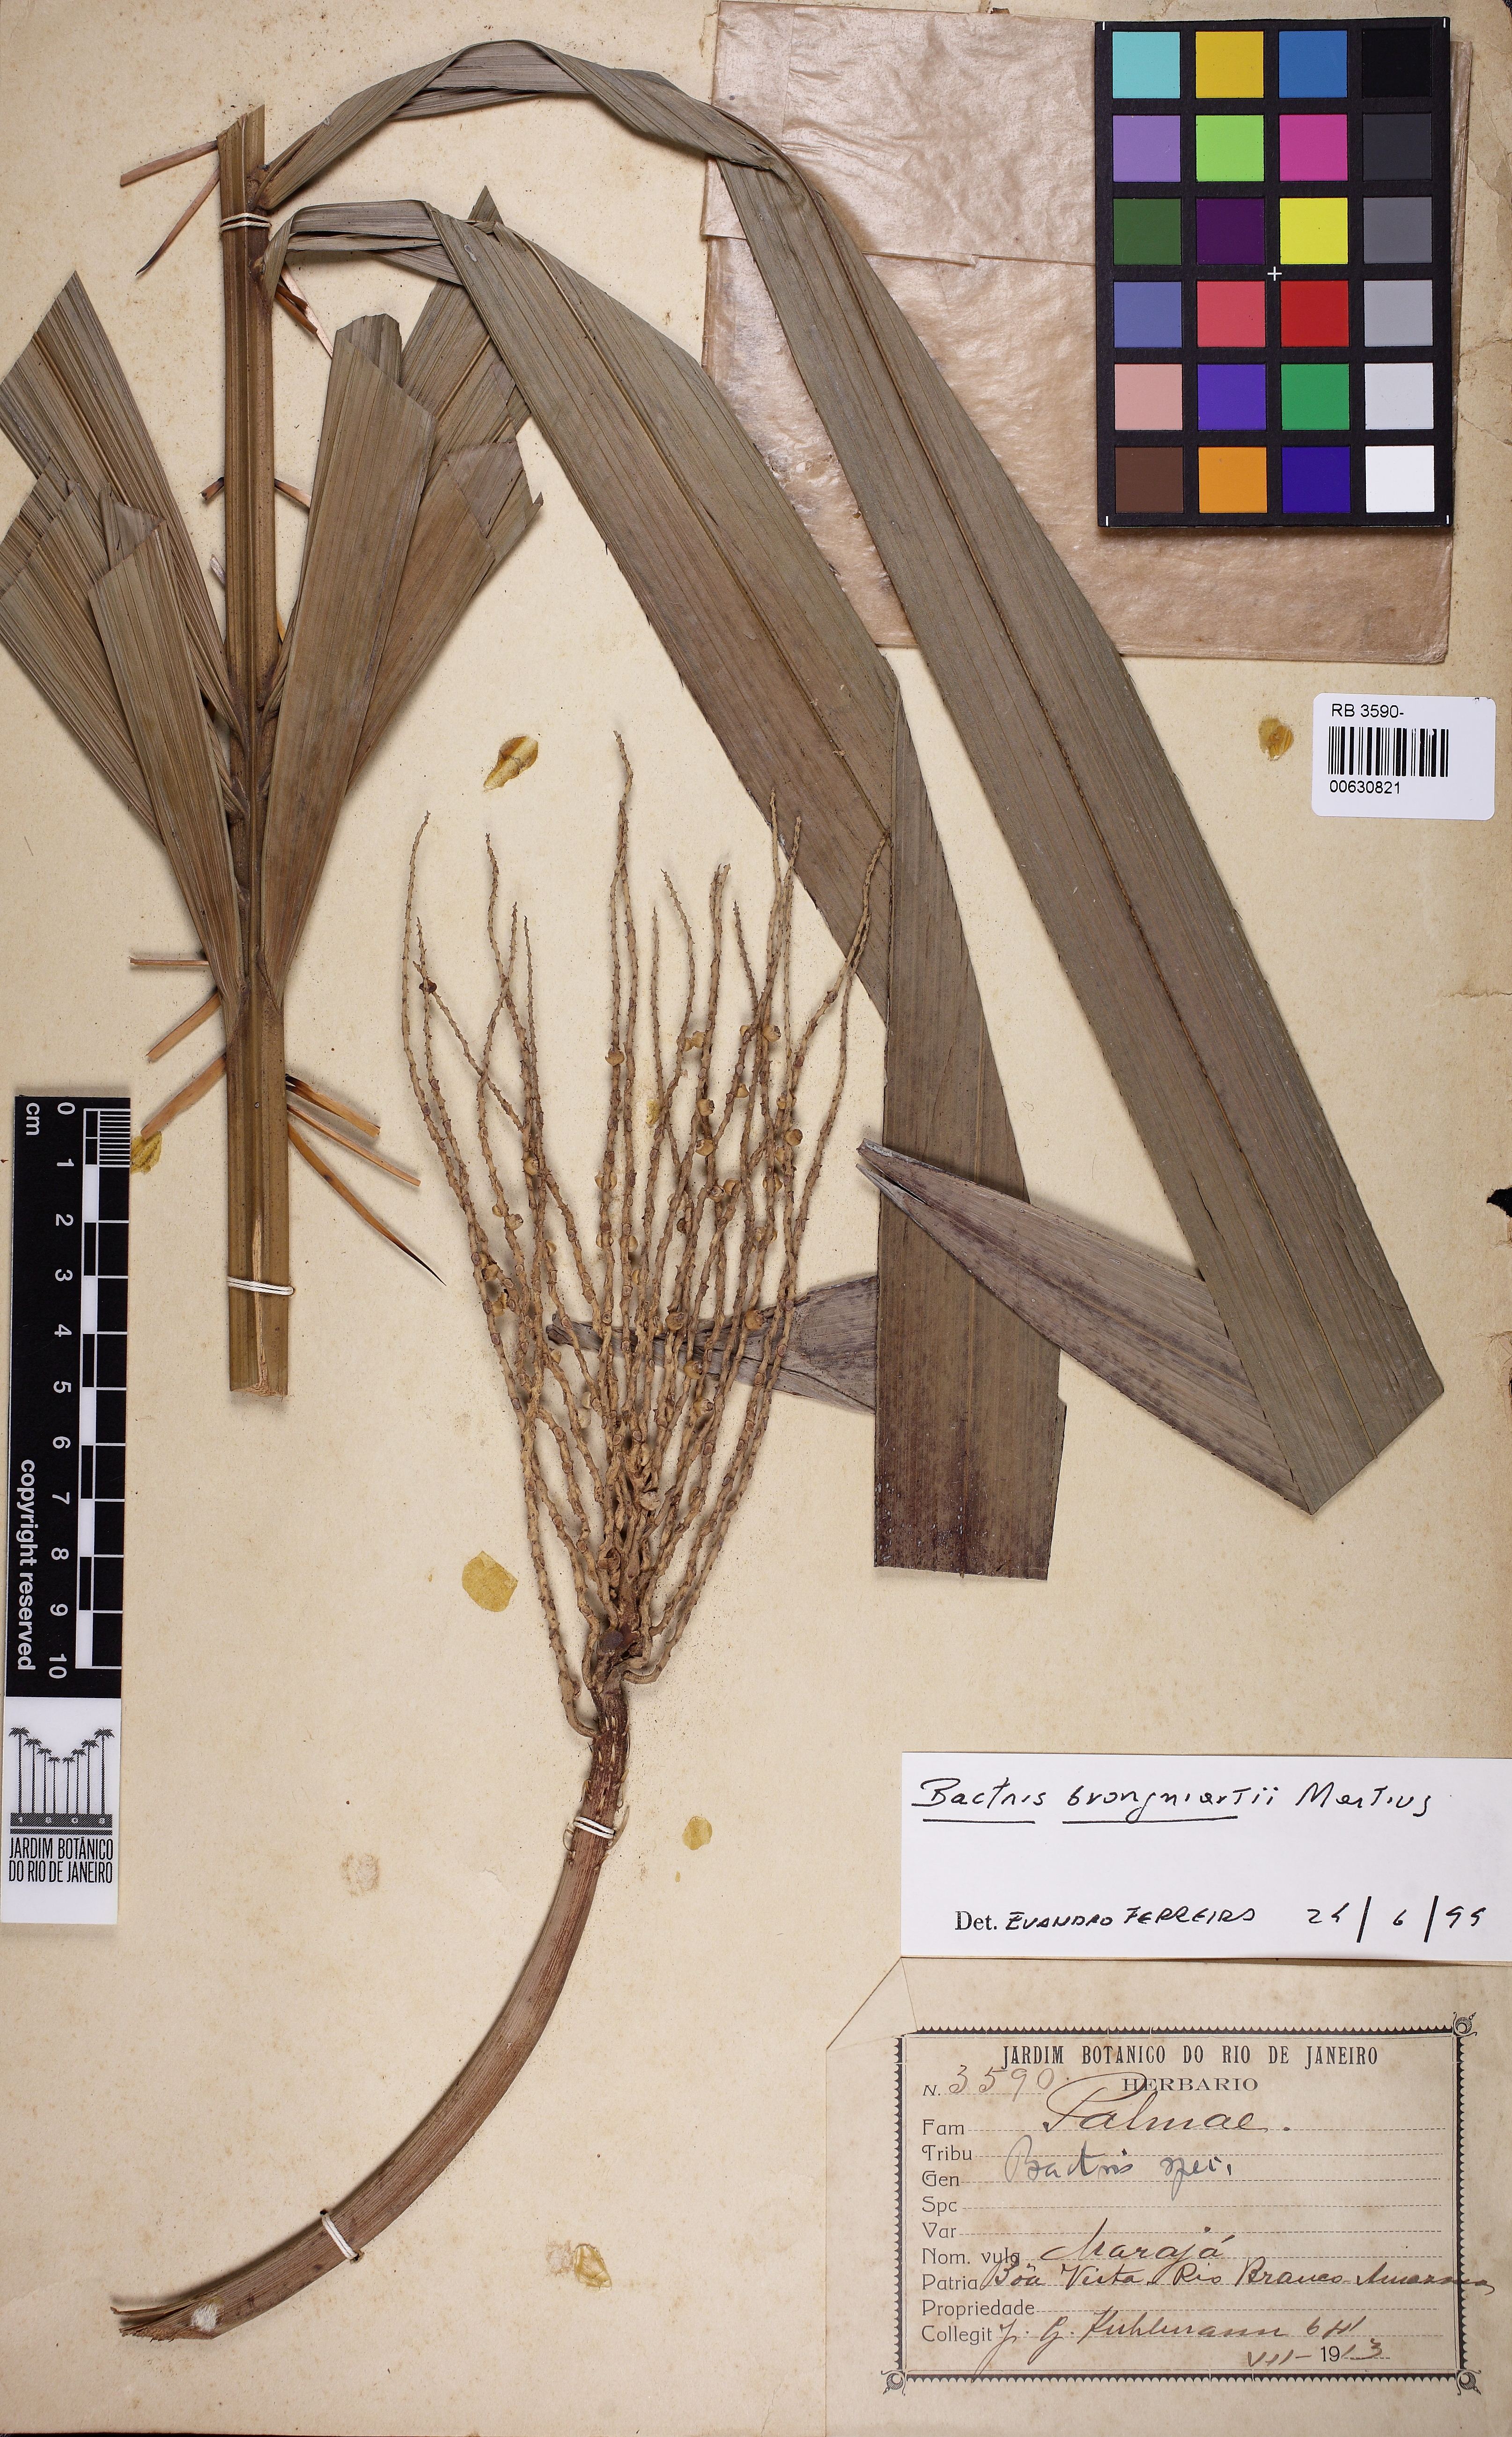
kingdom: Plantae
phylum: Tracheophyta
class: Liliopsida
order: Arecales
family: Arecaceae
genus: Bactris
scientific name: Bactris brongniartii
